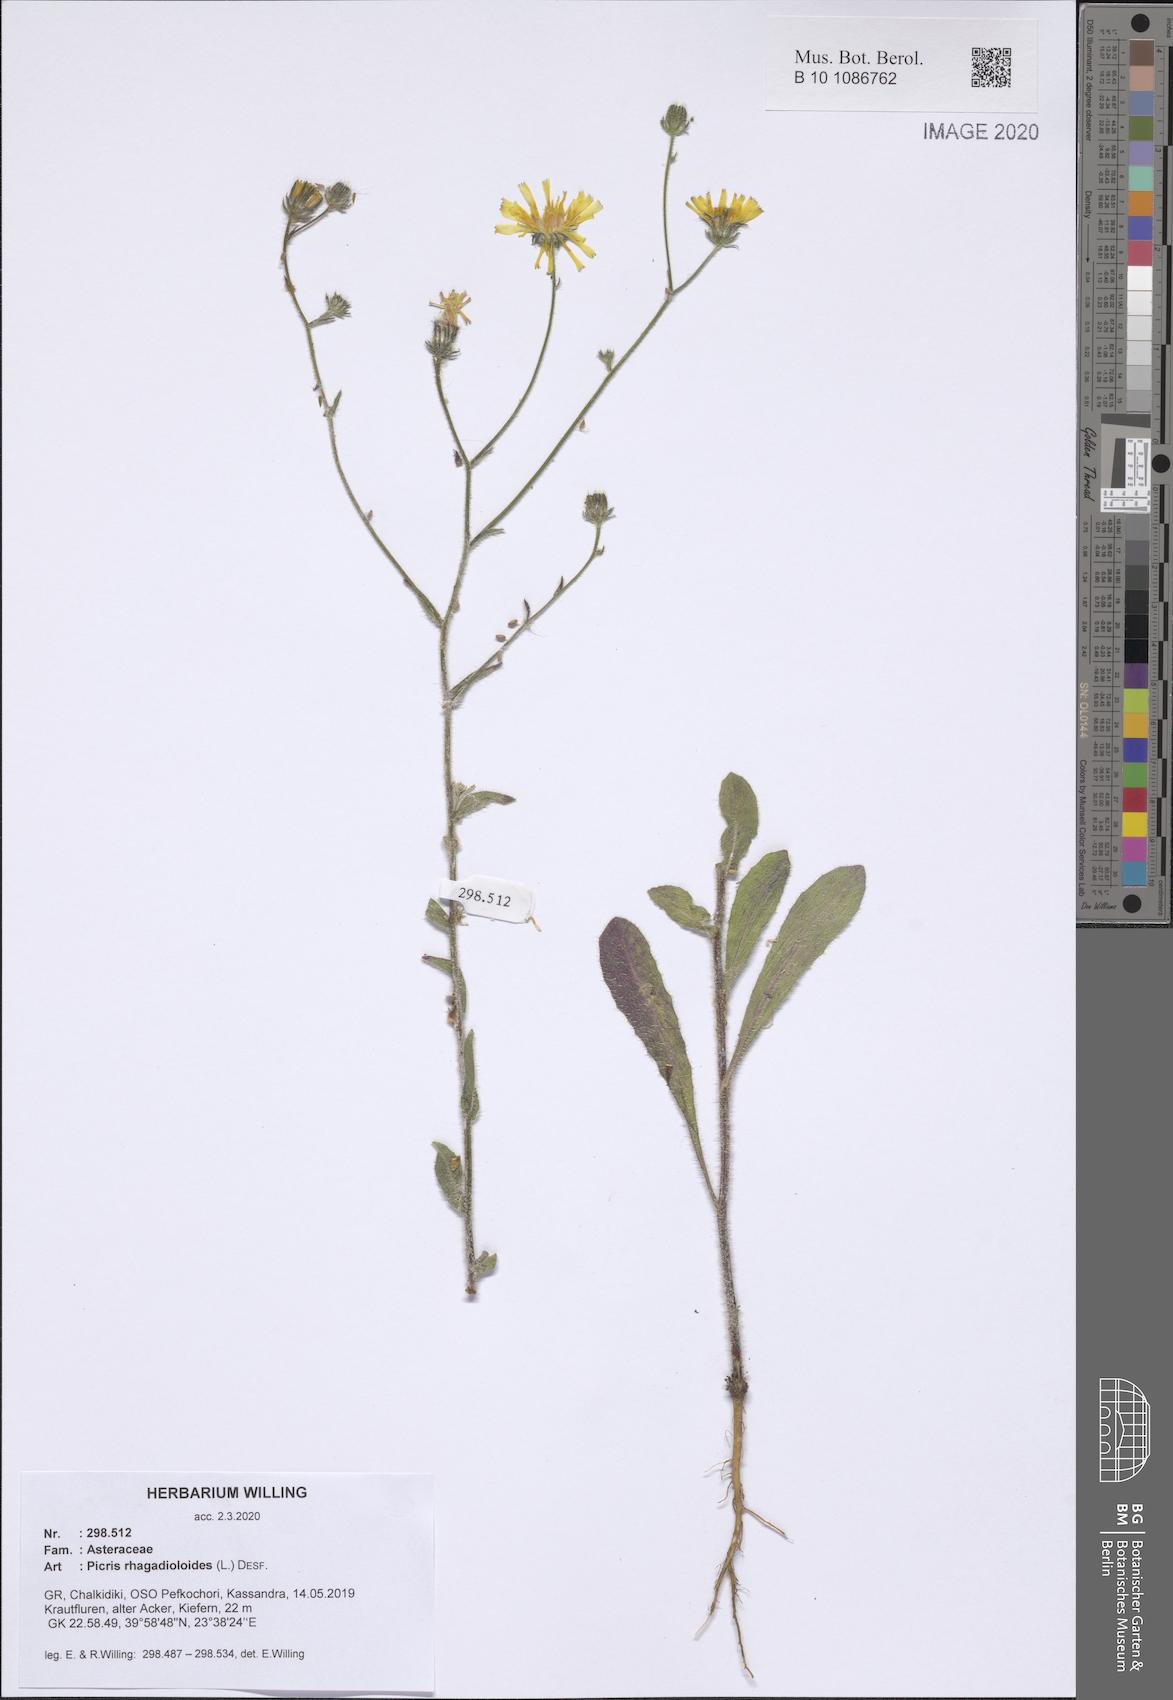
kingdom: Plantae
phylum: Tracheophyta
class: Magnoliopsida
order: Asterales
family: Asteraceae
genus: Picris
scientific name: Picris rhagadioloides
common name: Oxtongue
